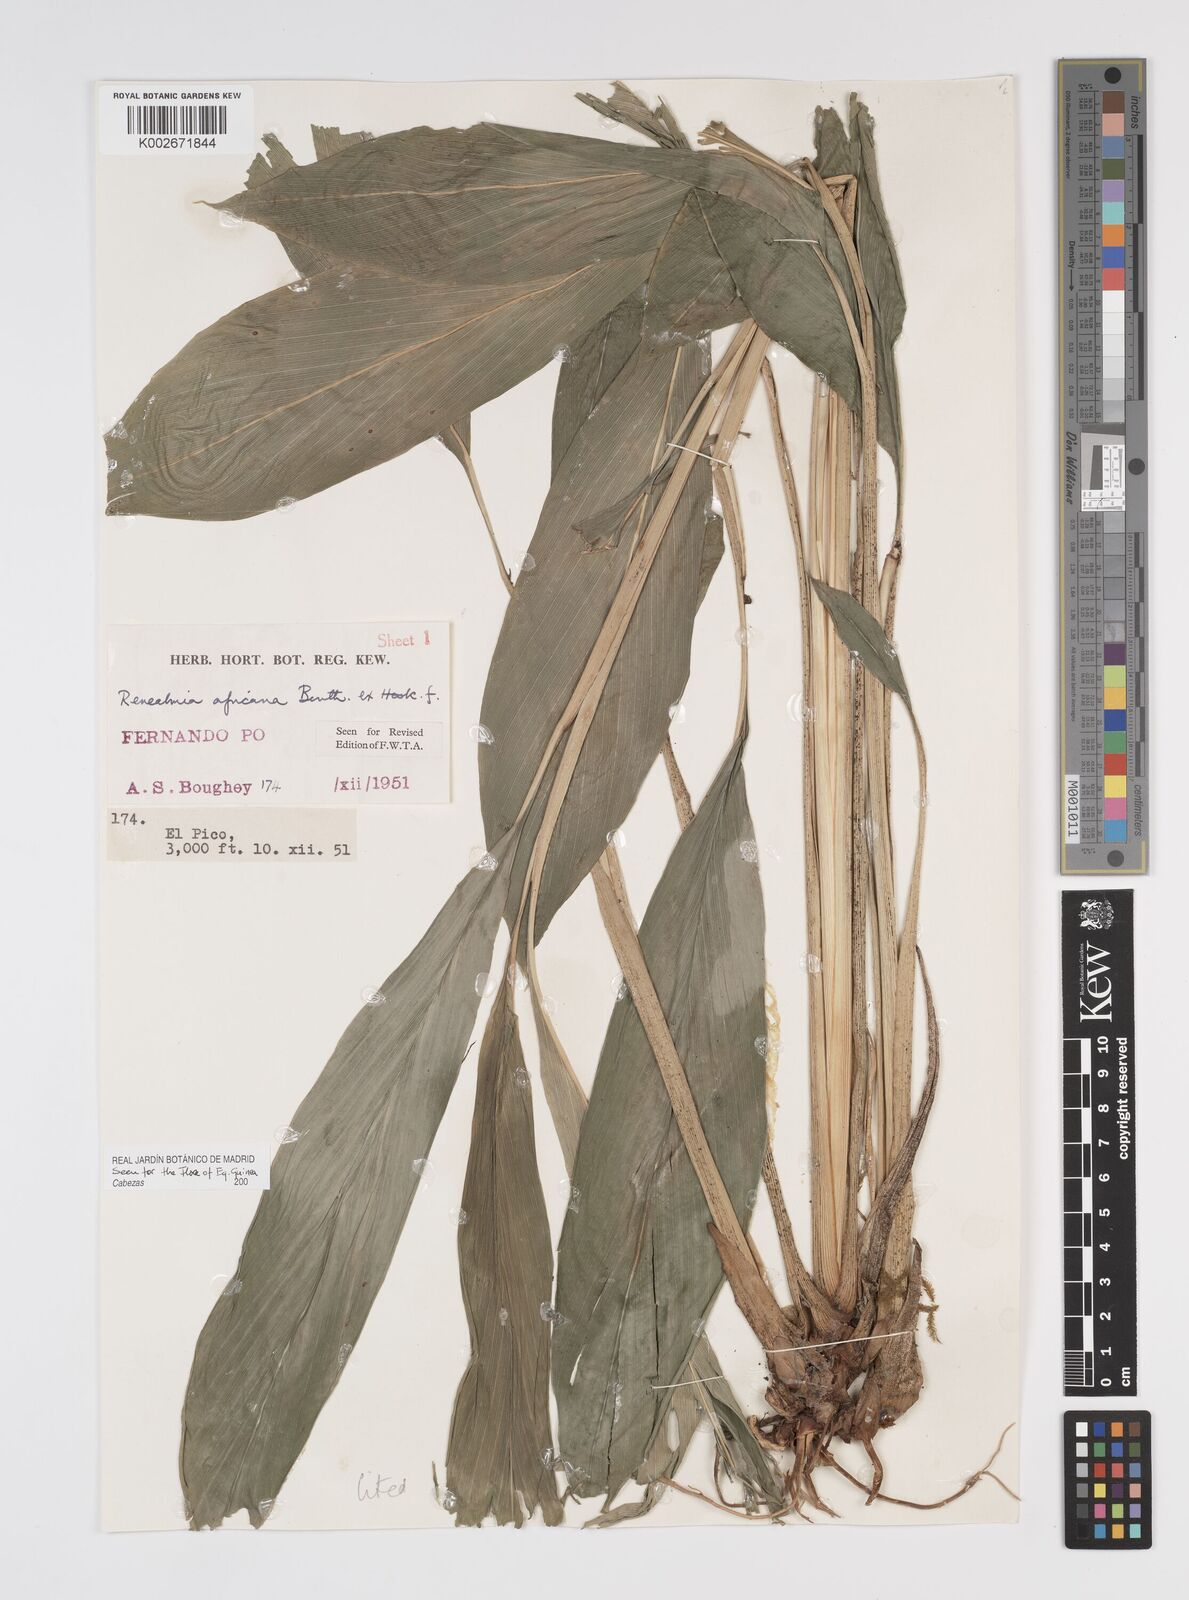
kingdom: Plantae
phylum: Tracheophyta
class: Liliopsida
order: Zingiberales
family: Zingiberaceae
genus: Renealmia
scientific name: Renealmia africana
